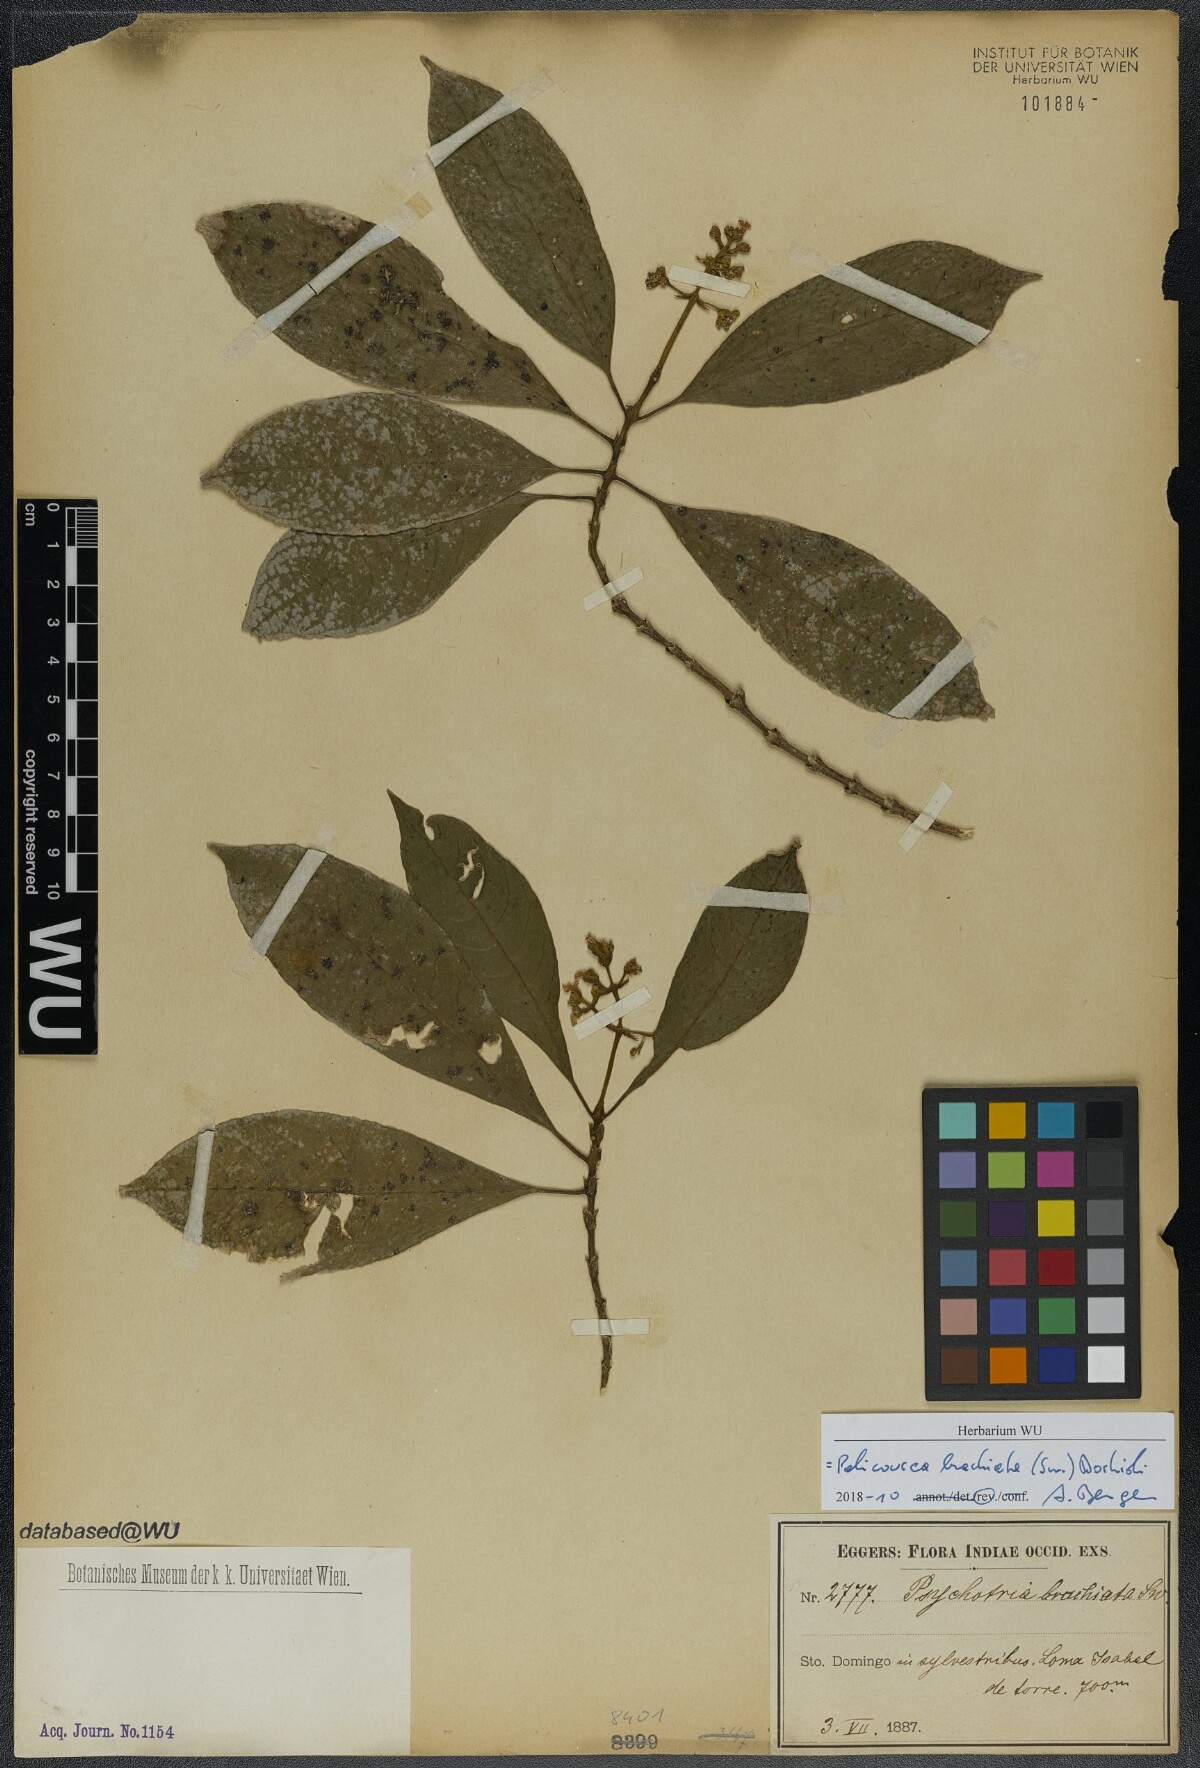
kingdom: Plantae
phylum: Tracheophyta
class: Magnoliopsida
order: Gentianales
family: Rubiaceae
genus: Palicourea
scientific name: Palicourea brachiata
